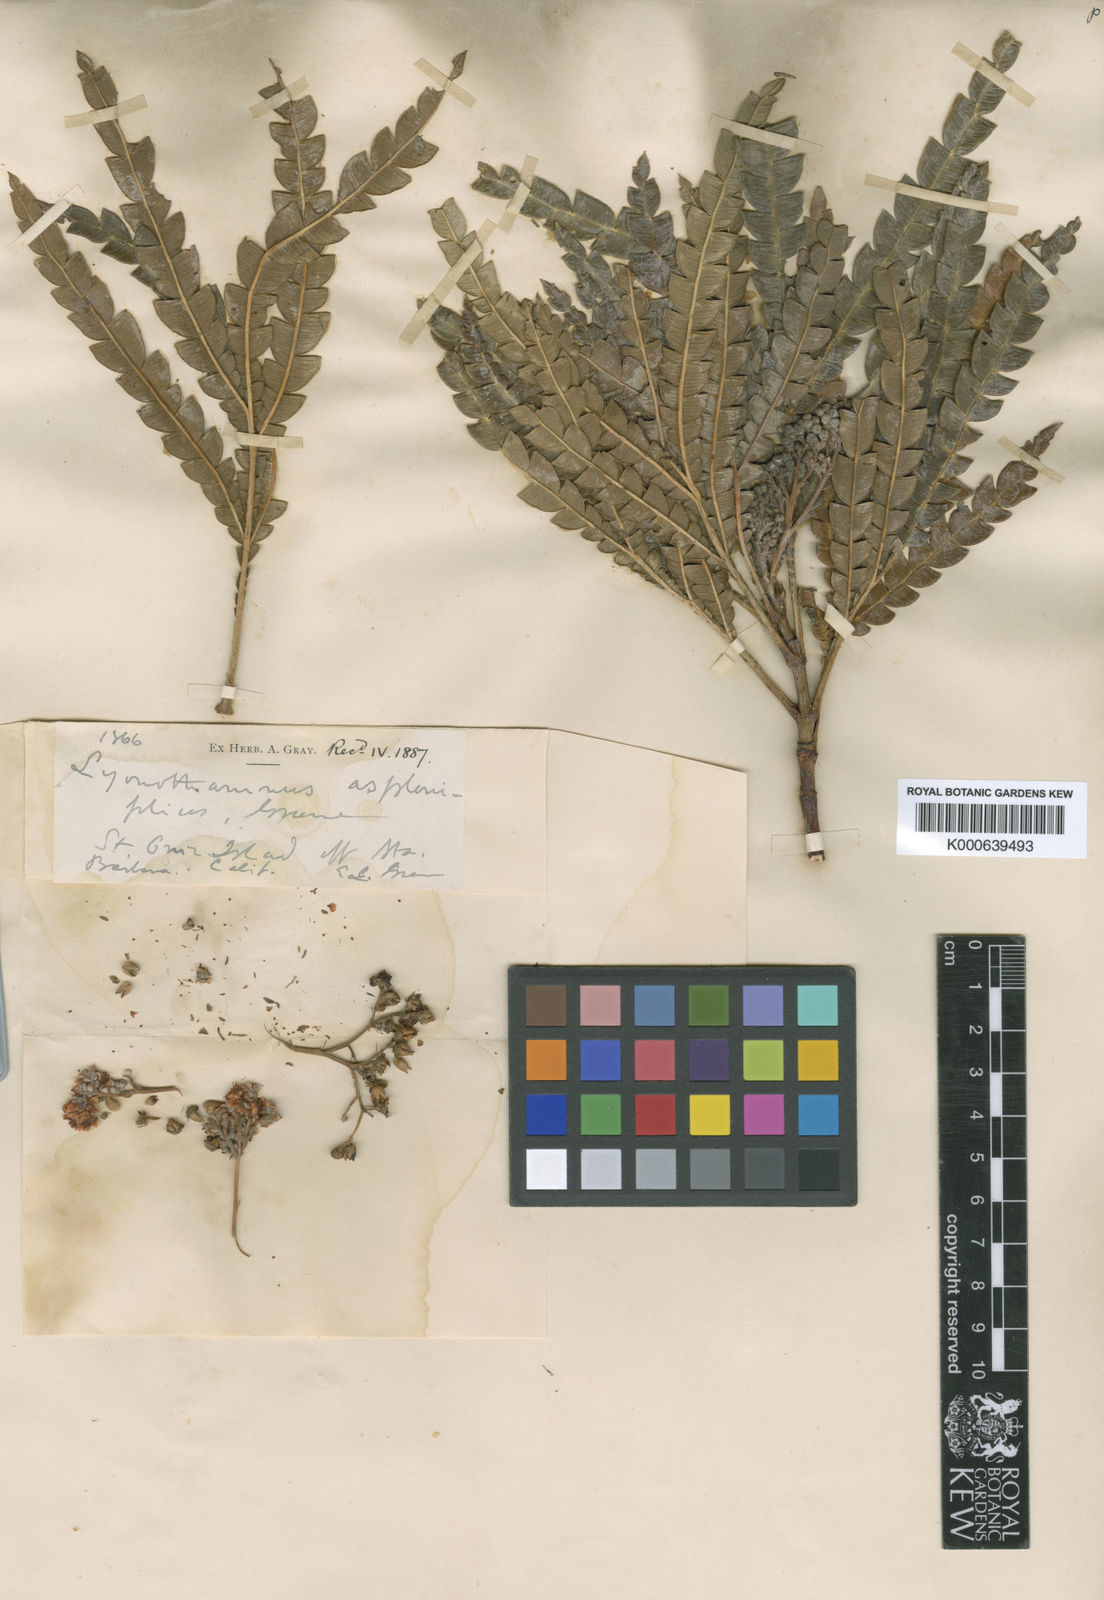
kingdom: Plantae
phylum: Tracheophyta
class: Magnoliopsida
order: Rosales
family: Rosaceae
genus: Lyonothamnus
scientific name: Lyonothamnus floribundus
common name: Catalina ironwood
